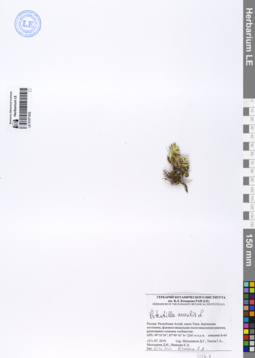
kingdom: Plantae
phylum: Tracheophyta
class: Magnoliopsida
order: Rosales
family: Rosaceae
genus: Potentilla
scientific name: Potentilla acaulis
